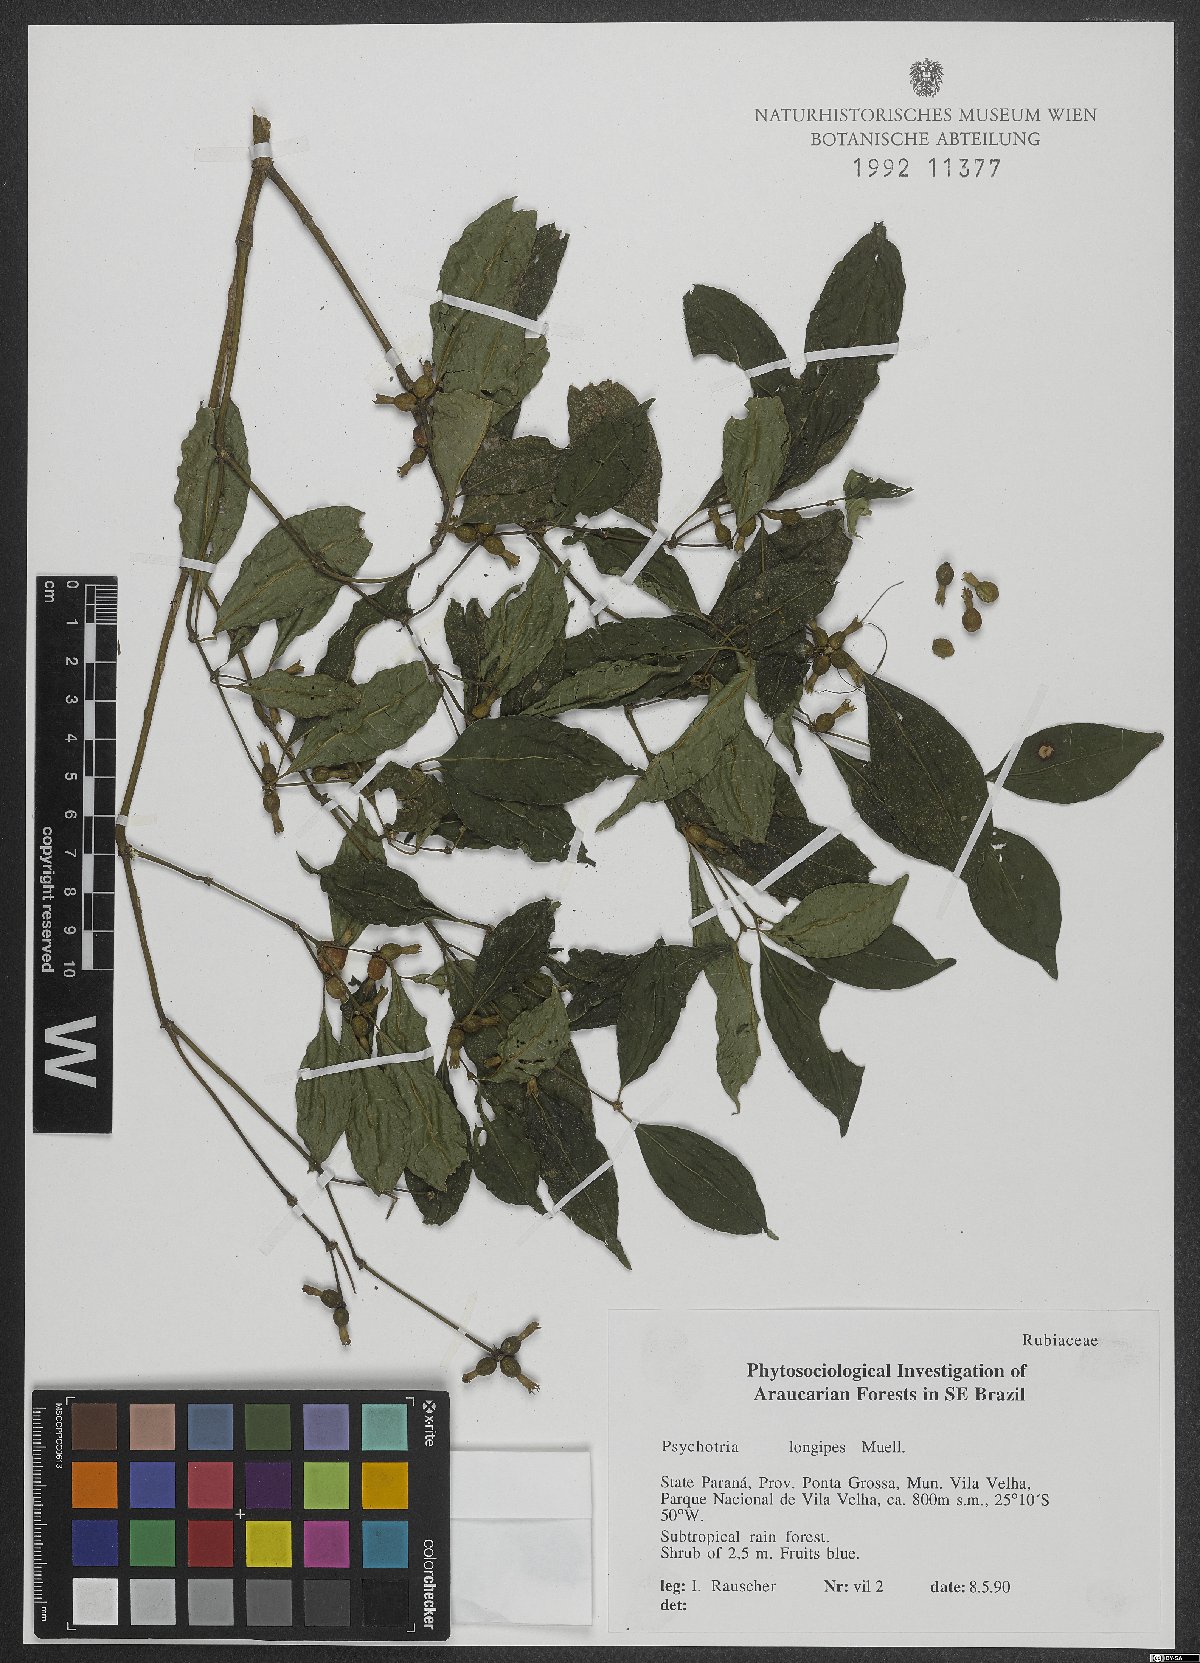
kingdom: Plantae
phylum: Tracheophyta
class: Magnoliopsida
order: Gentianales
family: Rubiaceae
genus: Palicourea
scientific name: Palicourea jungiana
